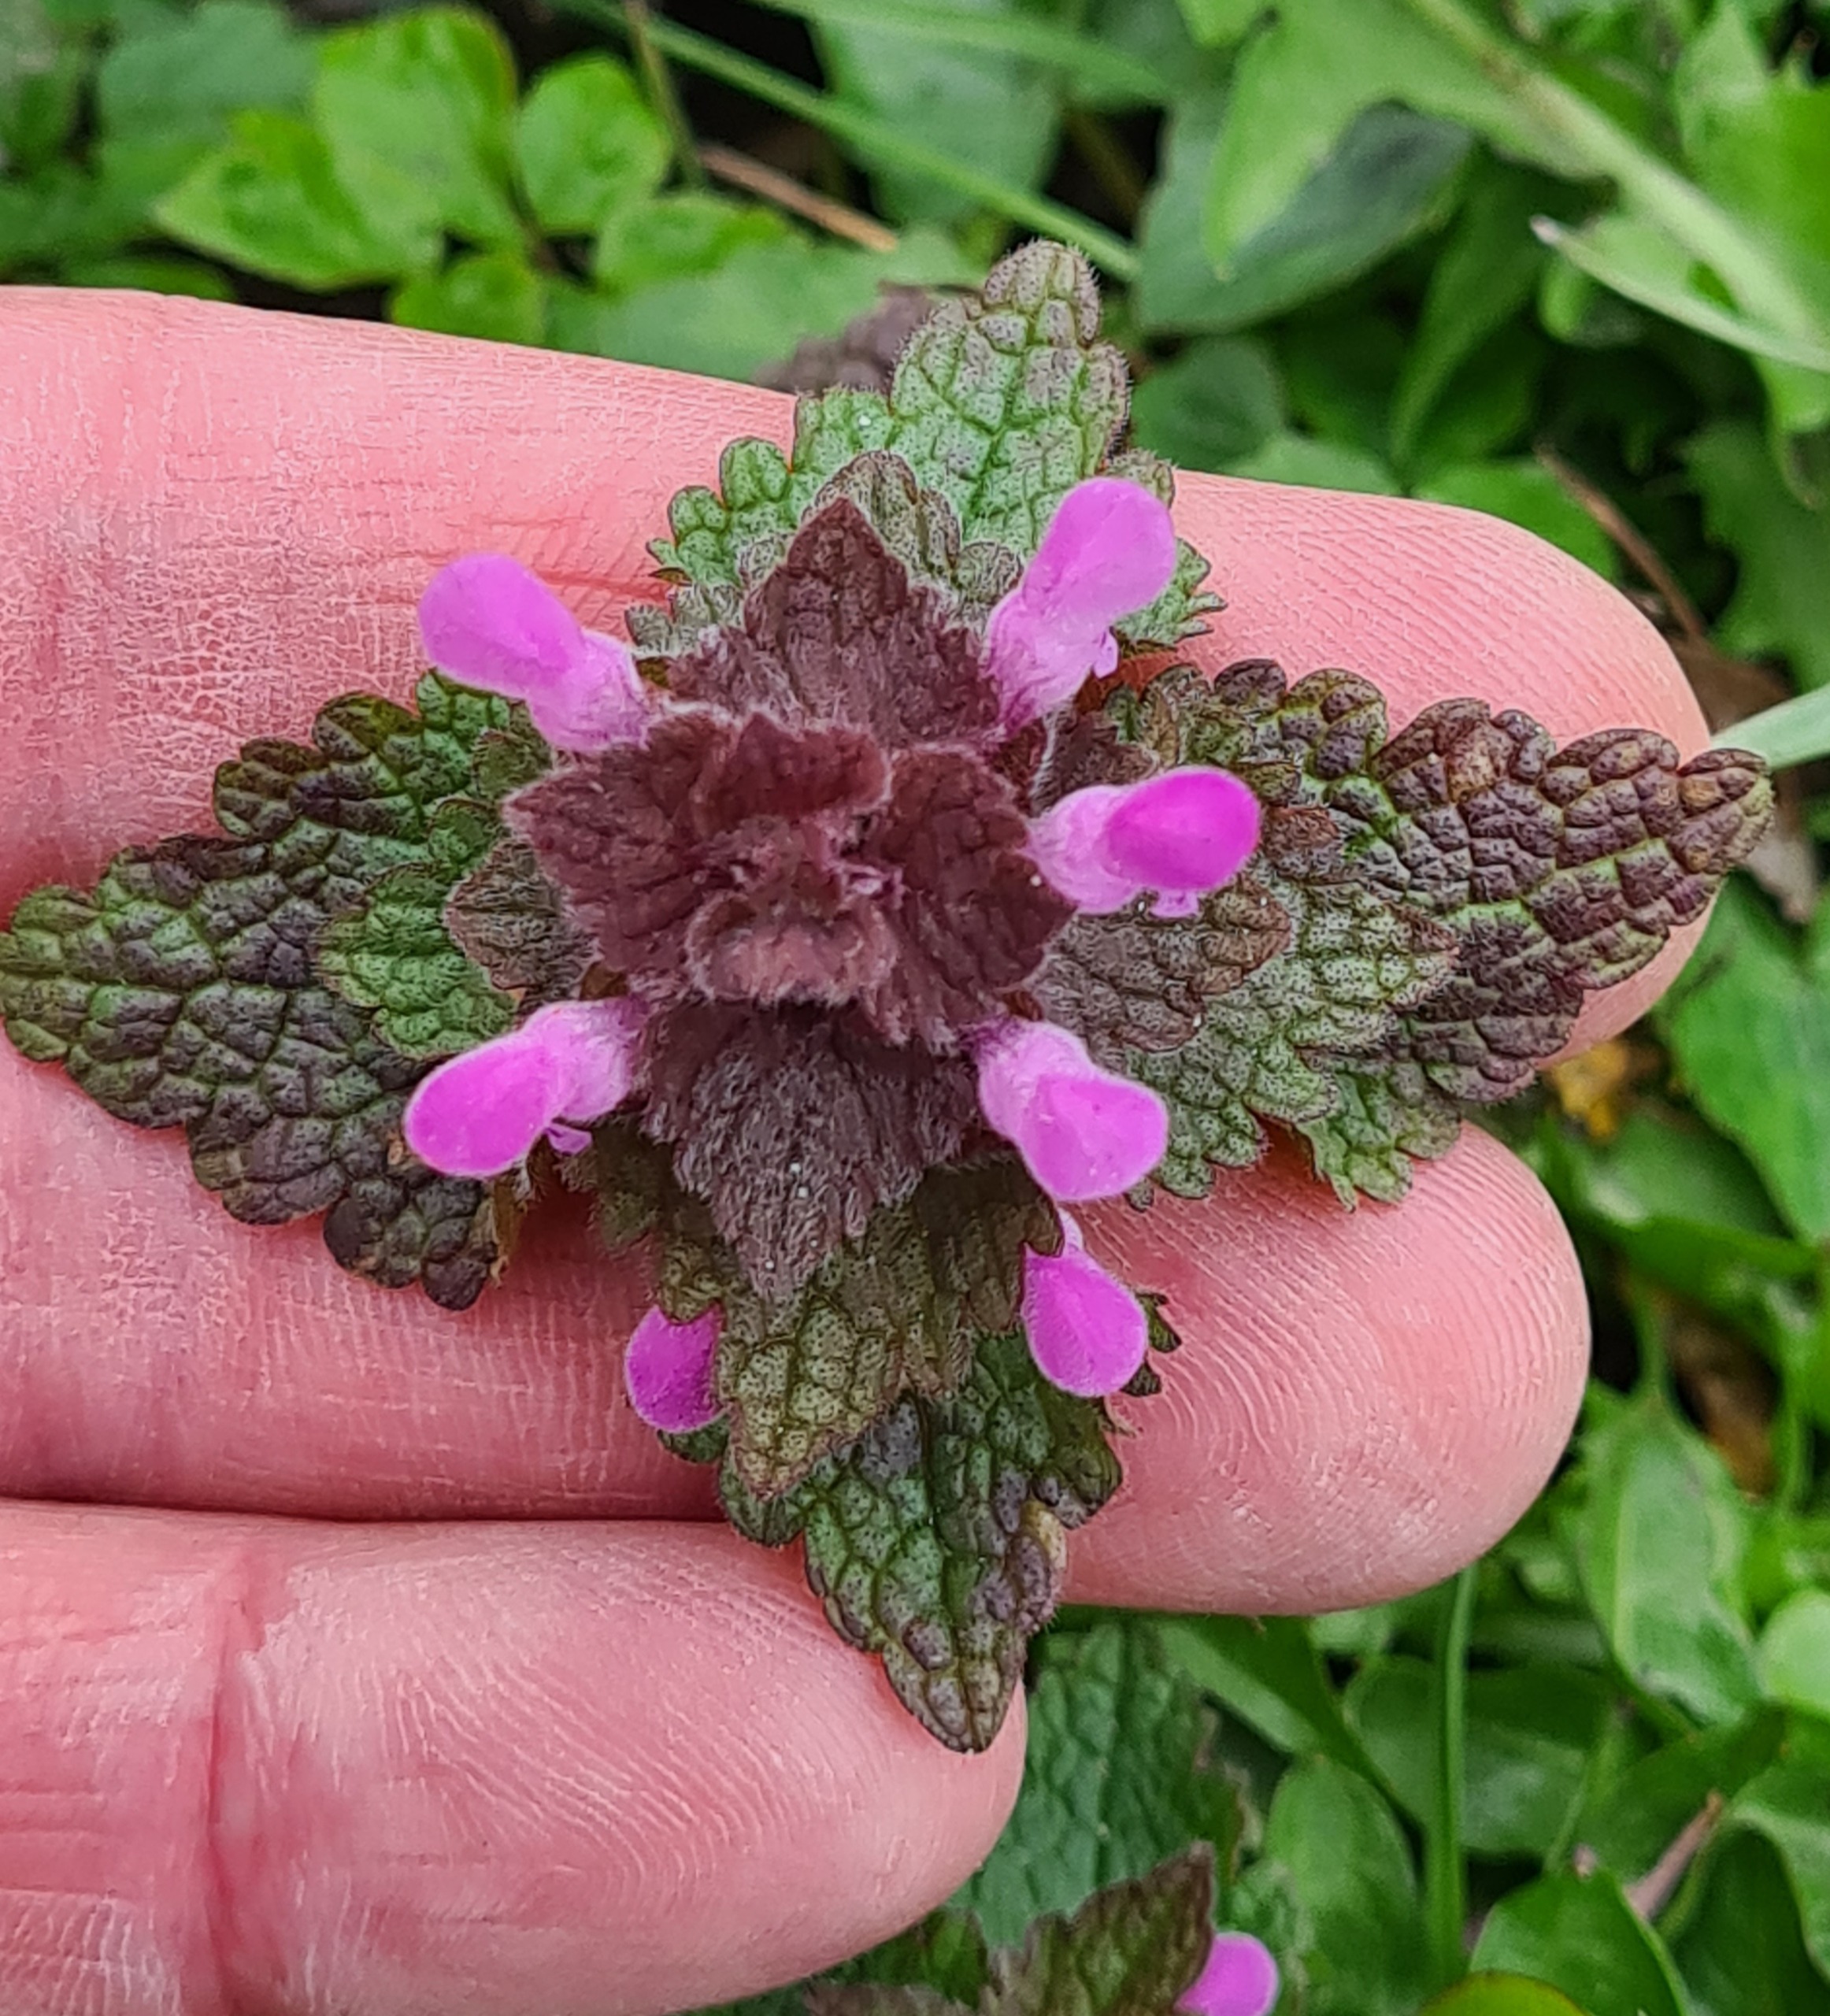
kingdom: Plantae
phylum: Tracheophyta
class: Magnoliopsida
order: Lamiales
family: Lamiaceae
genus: Lamium
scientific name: Lamium purpureum
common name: Rød tvetand
